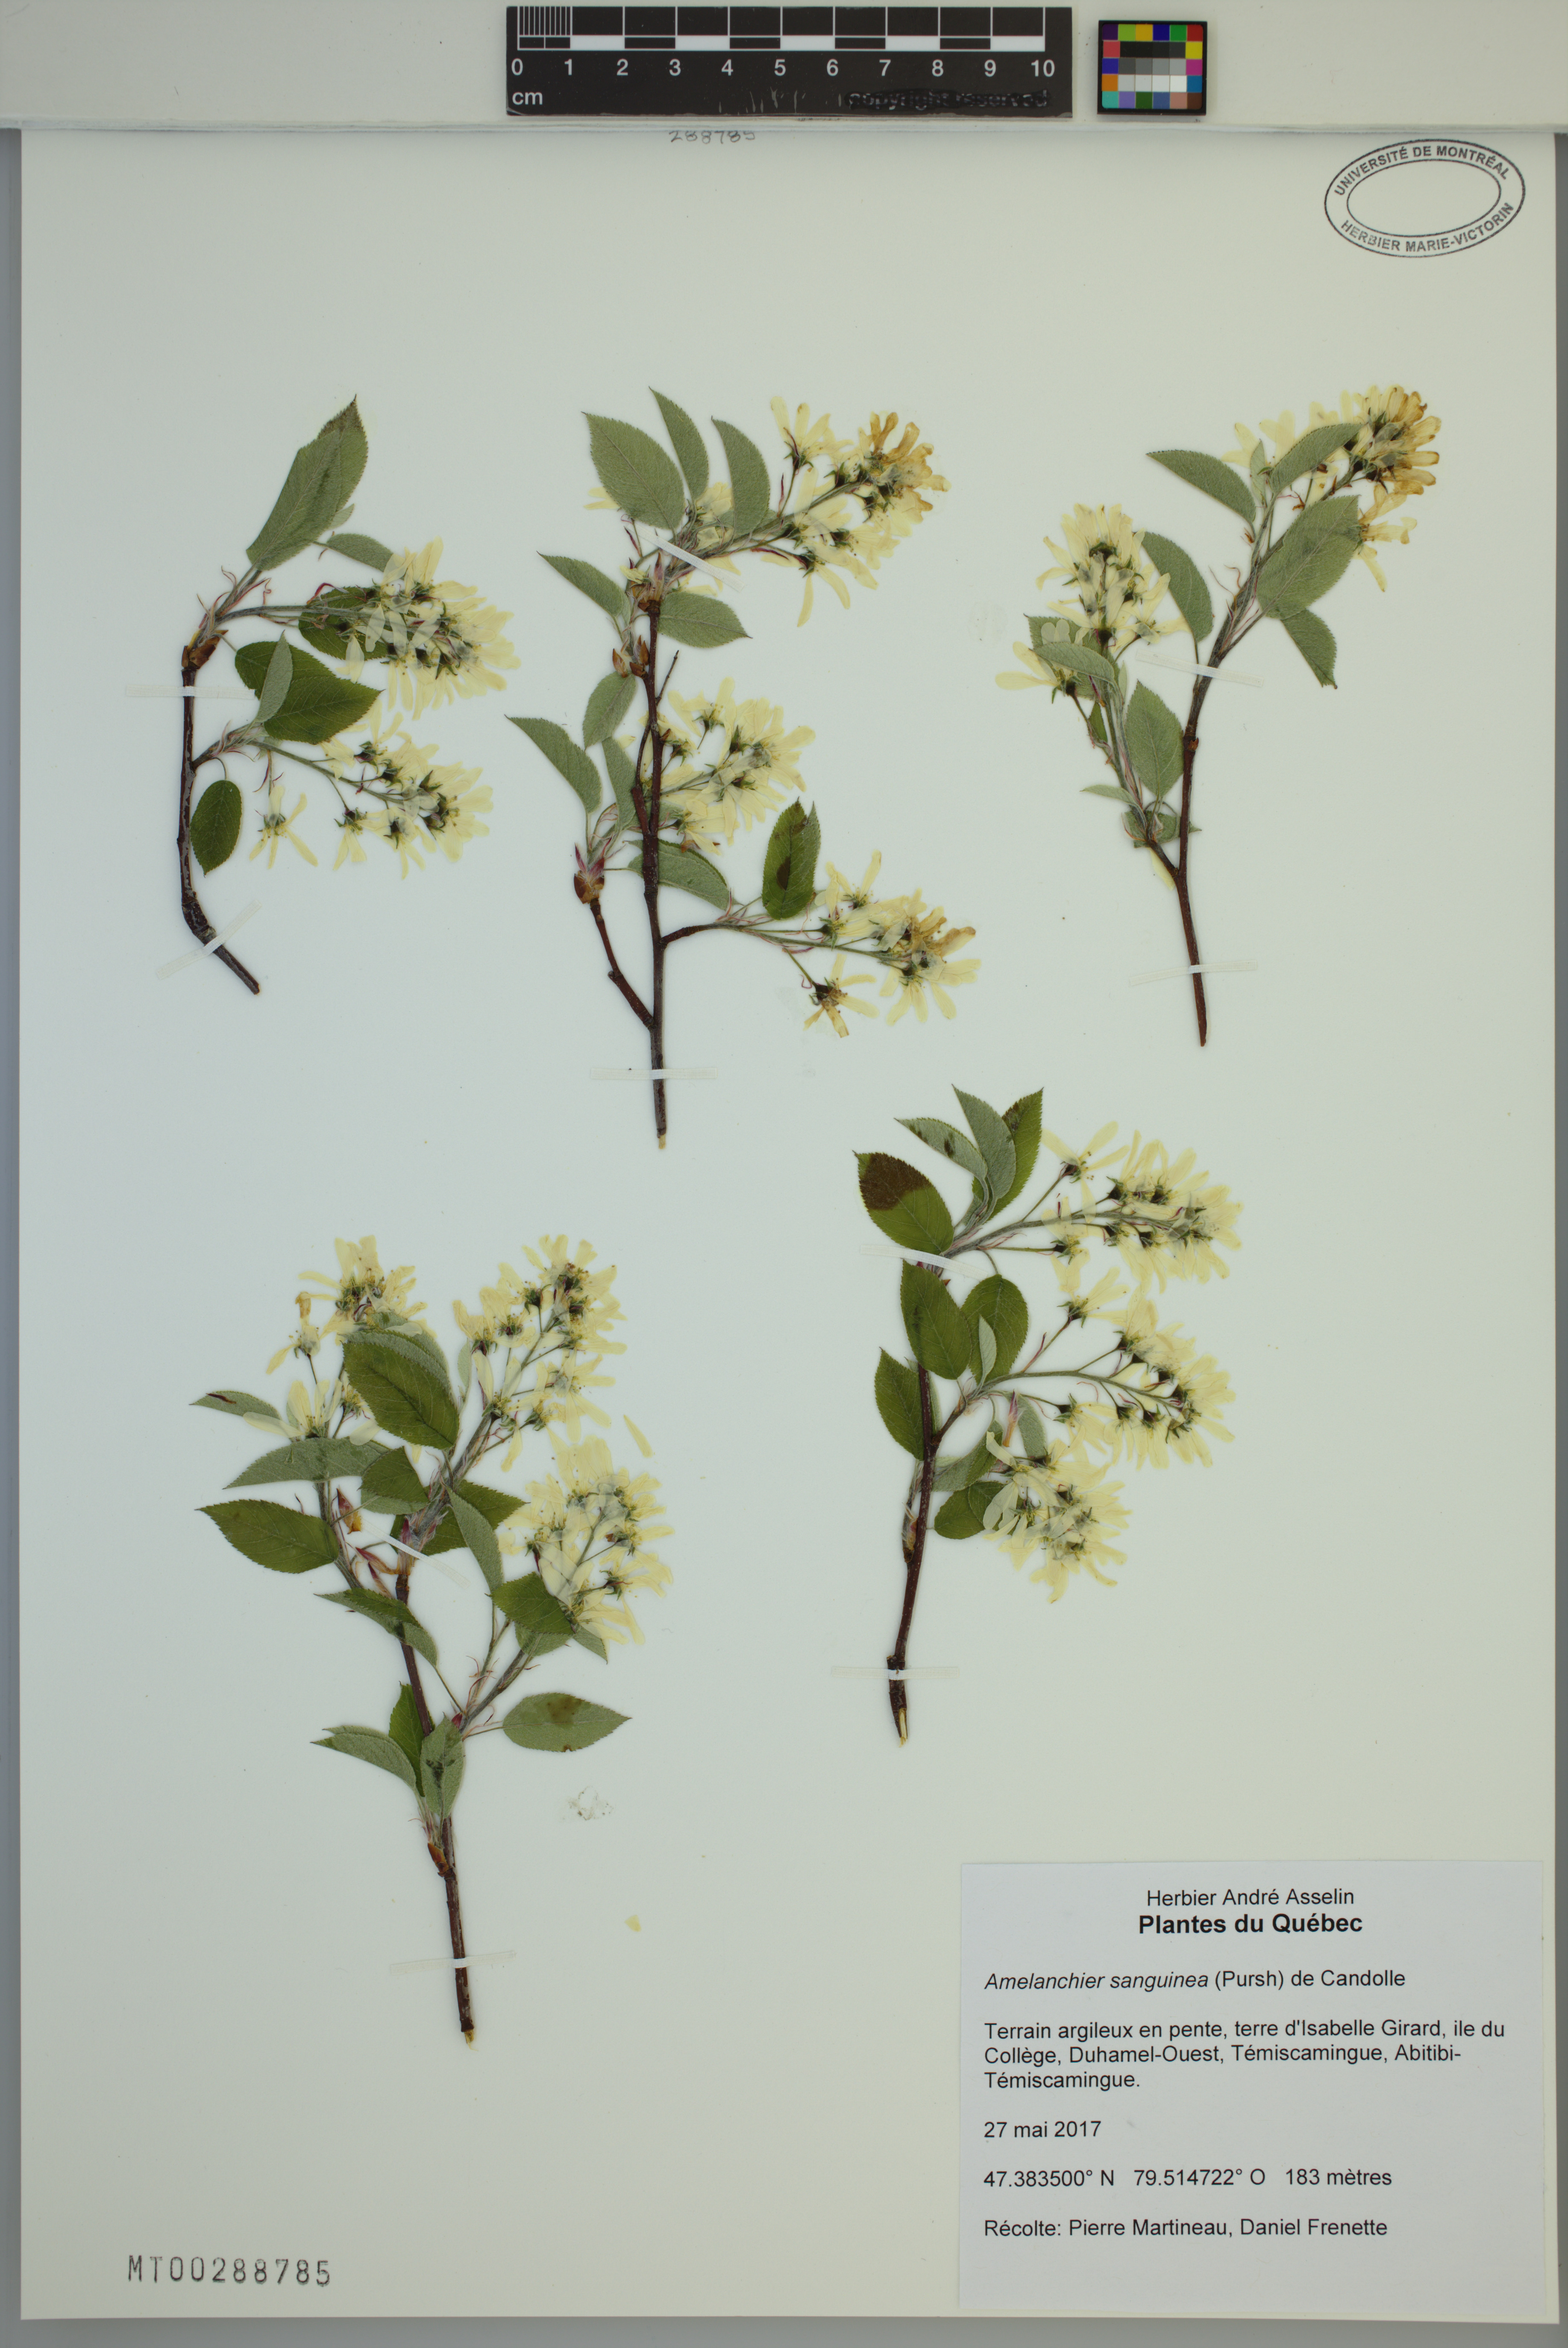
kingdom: Plantae
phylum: Tracheophyta
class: Magnoliopsida
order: Rosales
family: Rosaceae
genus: Amelanchier
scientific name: Amelanchier sanguinea
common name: Huron serviceberry
